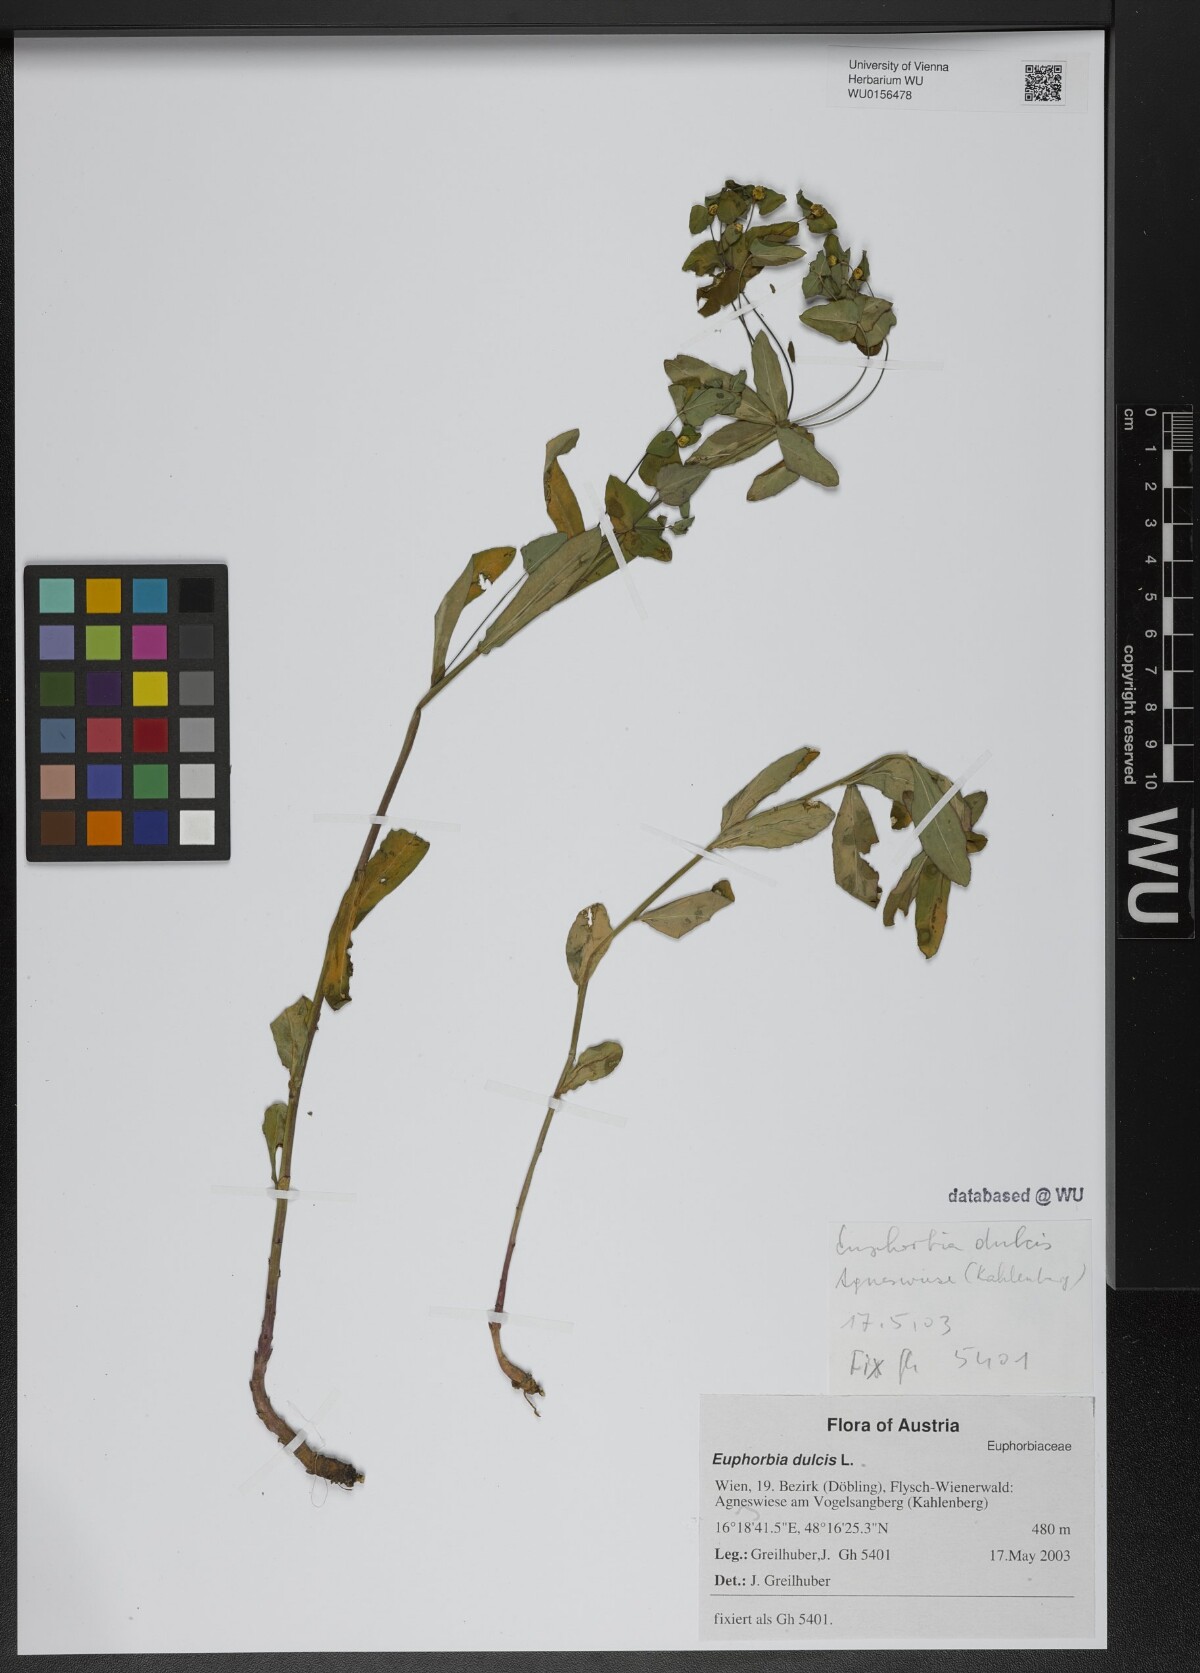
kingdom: Plantae
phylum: Tracheophyta
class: Magnoliopsida
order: Malpighiales
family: Euphorbiaceae
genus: Euphorbia
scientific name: Euphorbia dulcis
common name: Sweet spurge
